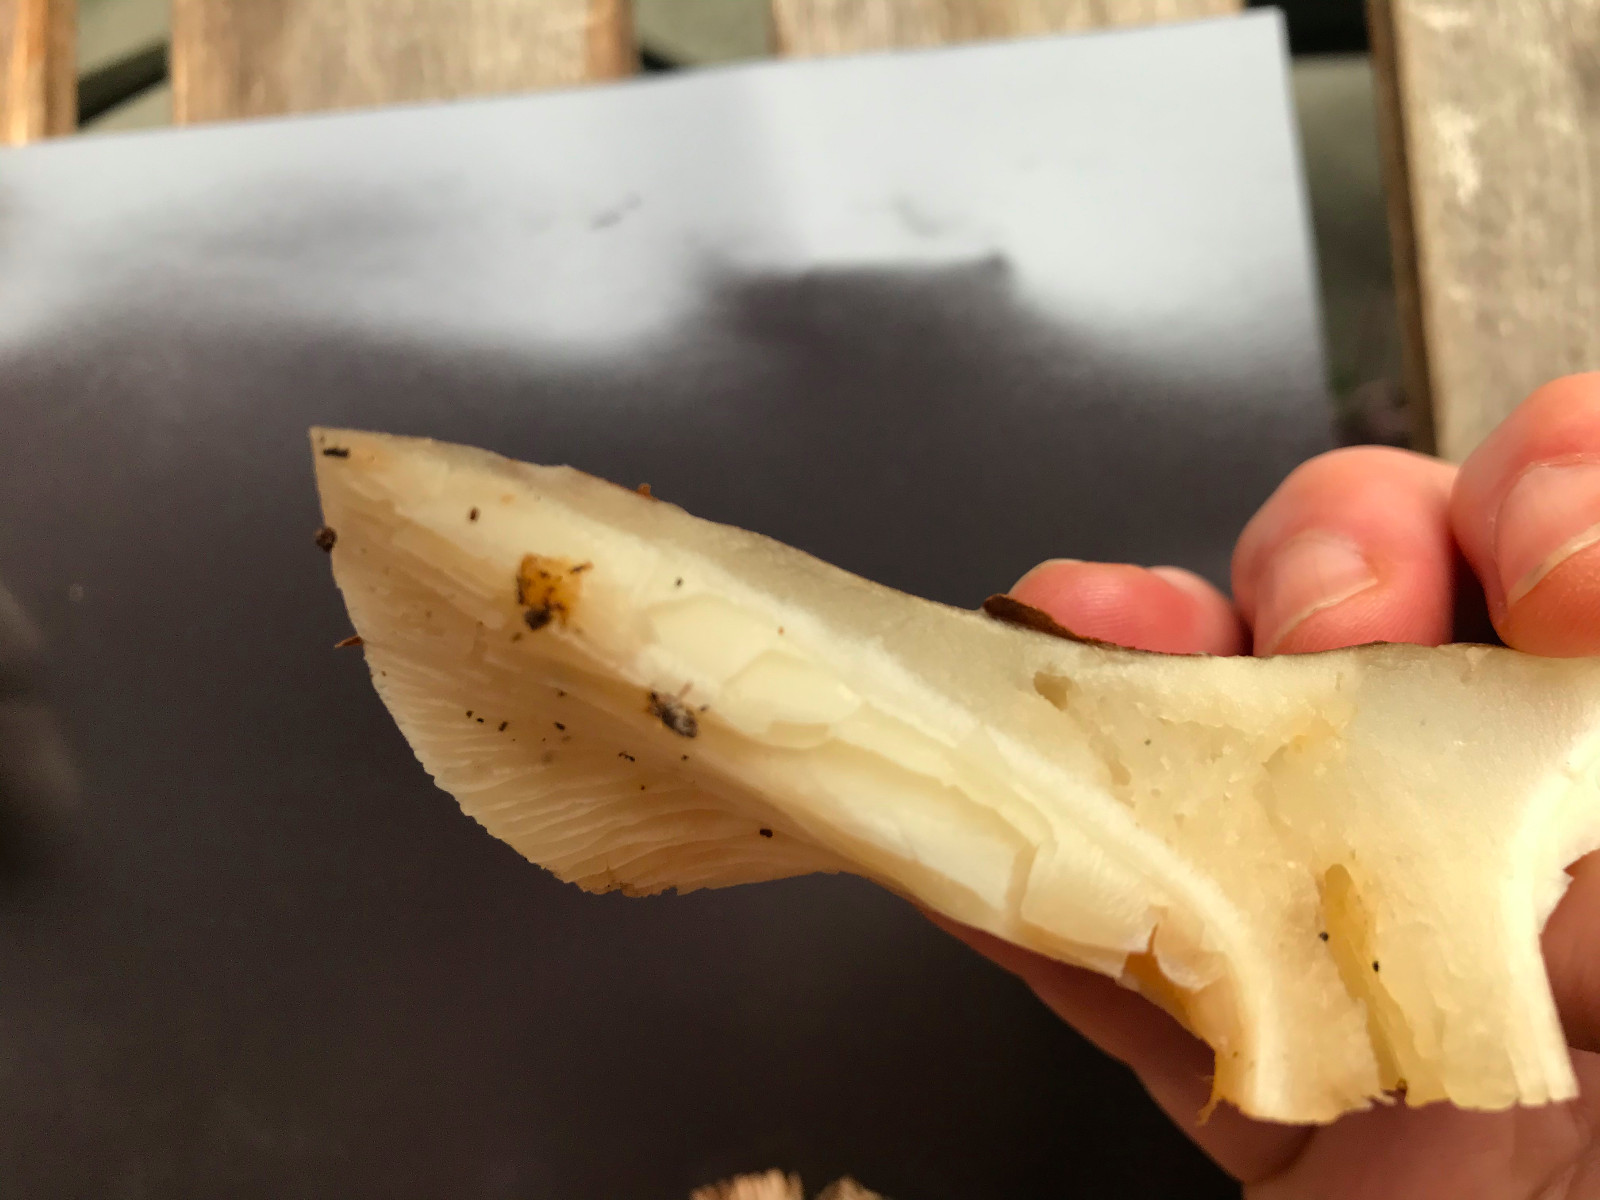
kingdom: Fungi
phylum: Basidiomycota
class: Agaricomycetes
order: Agaricales
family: Tricholomataceae
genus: Clitocybe
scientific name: Clitocybe nebularis
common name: tåge-tragthat
